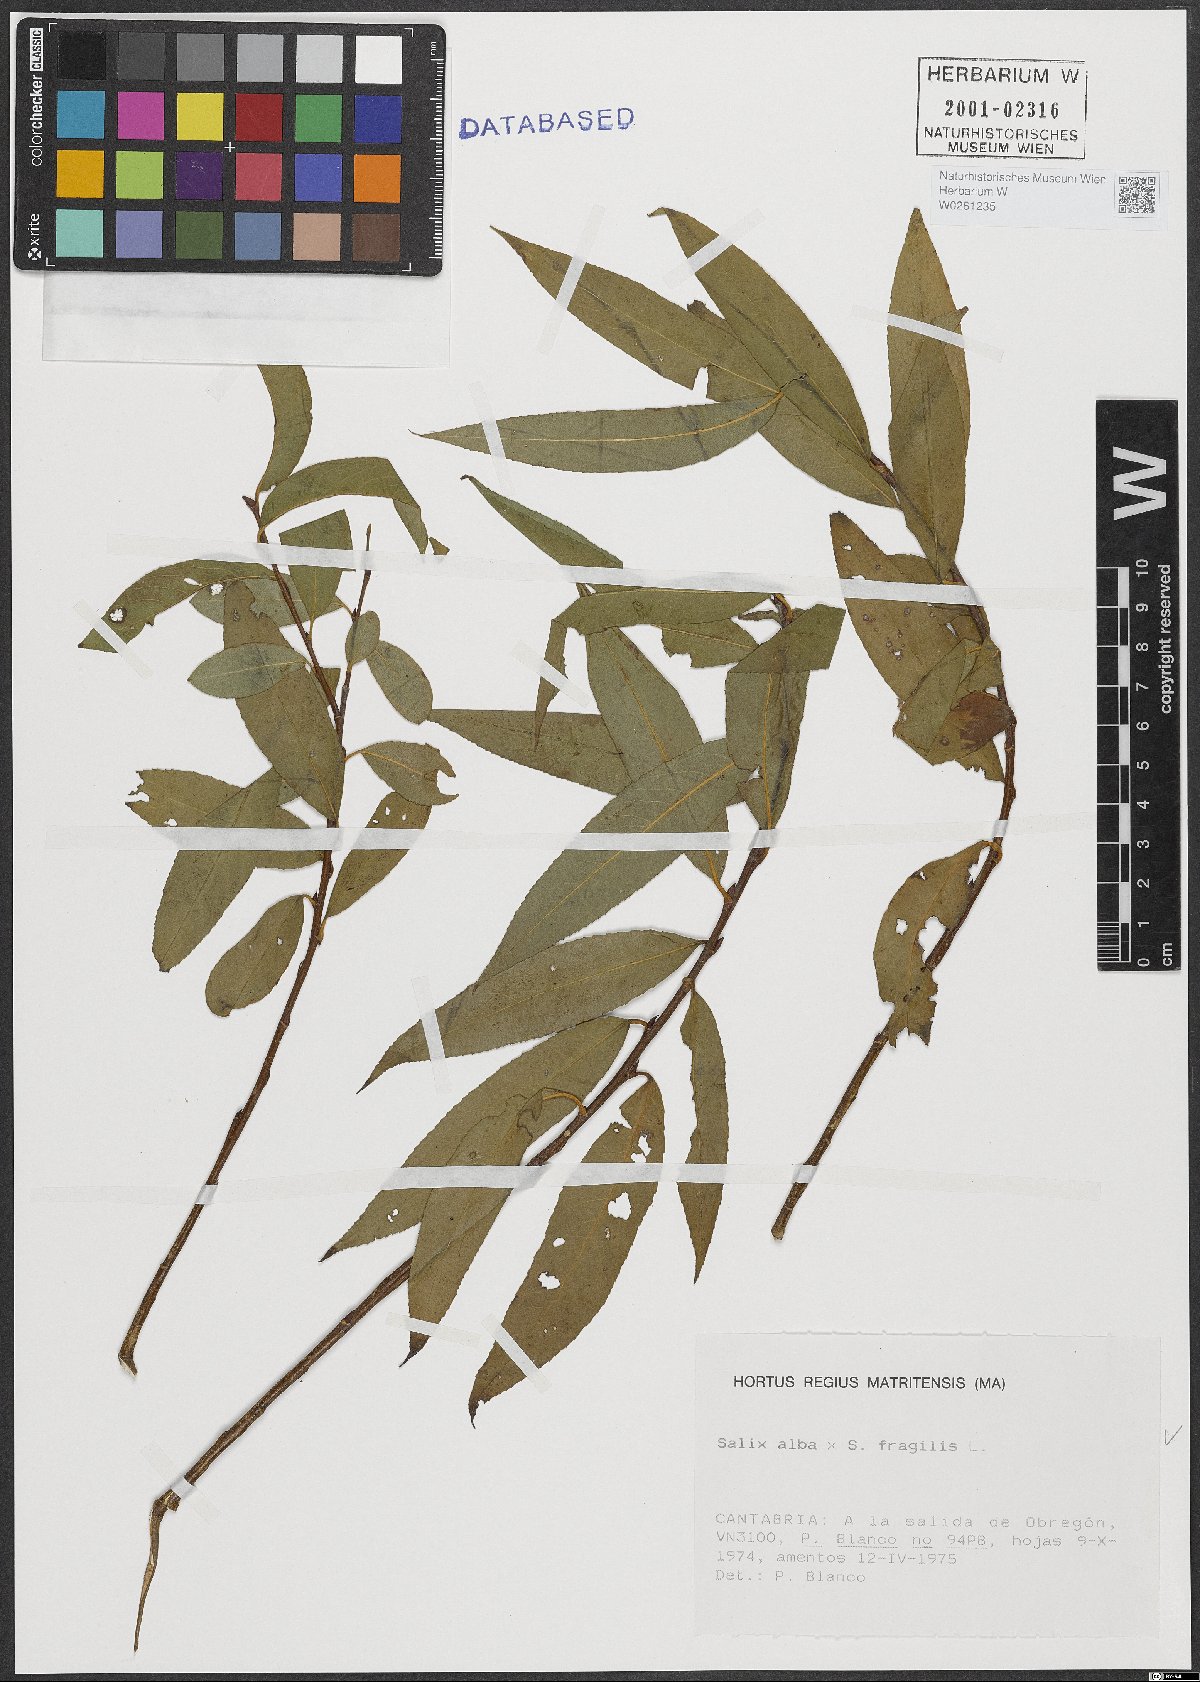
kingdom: Plantae
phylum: Tracheophyta
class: Magnoliopsida
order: Malpighiales
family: Salicaceae
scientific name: Salicaceae
